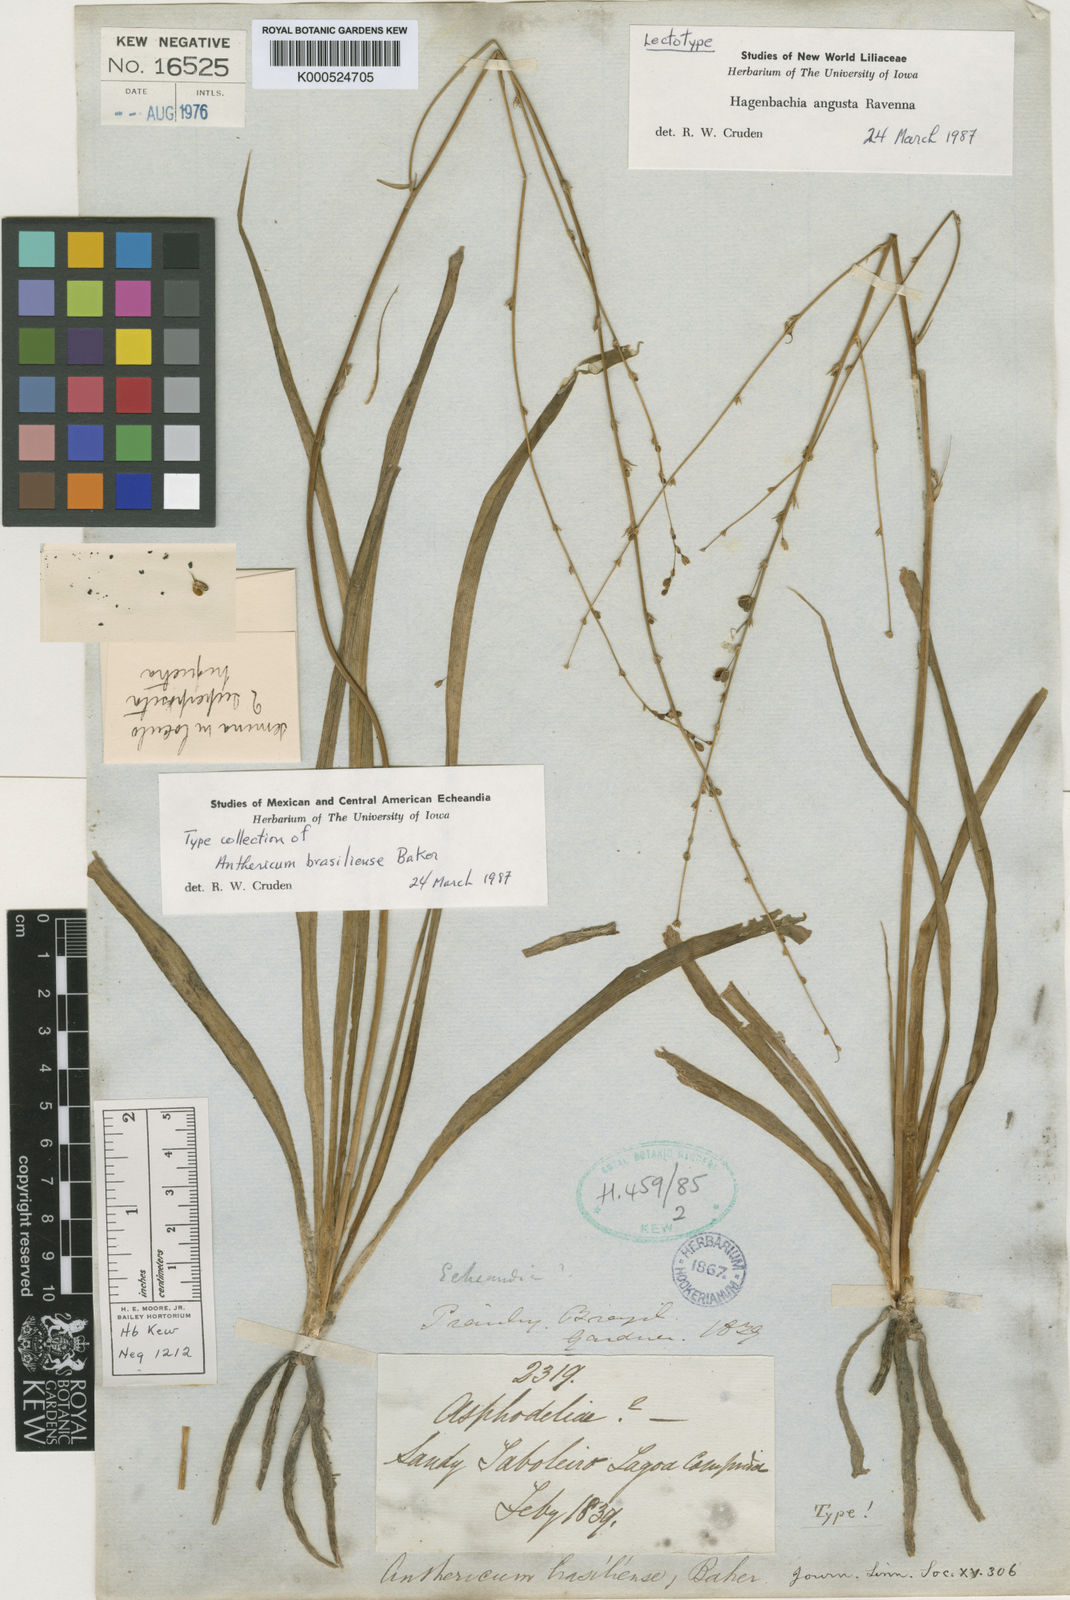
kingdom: Plantae
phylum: Tracheophyta
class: Liliopsida
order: Asparagales
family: Asparagaceae
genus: Hagenbachia
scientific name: Hagenbachia matogrossensis
